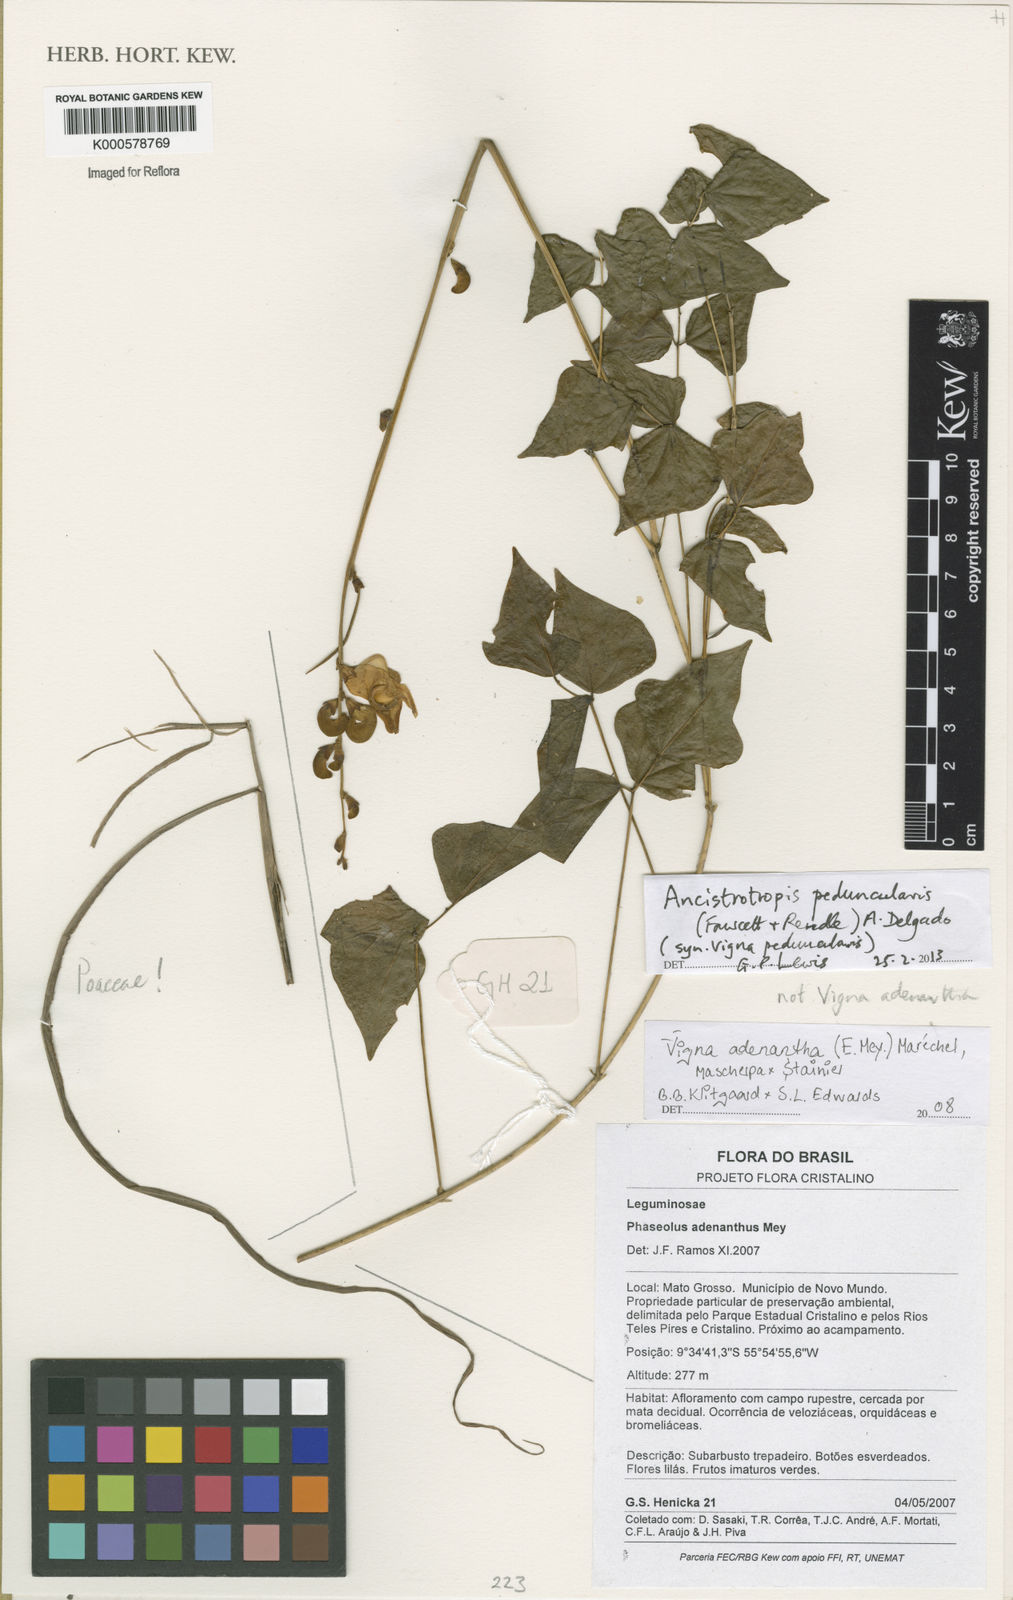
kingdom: Plantae
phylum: Tracheophyta
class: Magnoliopsida
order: Fabales
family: Fabaceae
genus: Vigna
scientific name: Vigna
